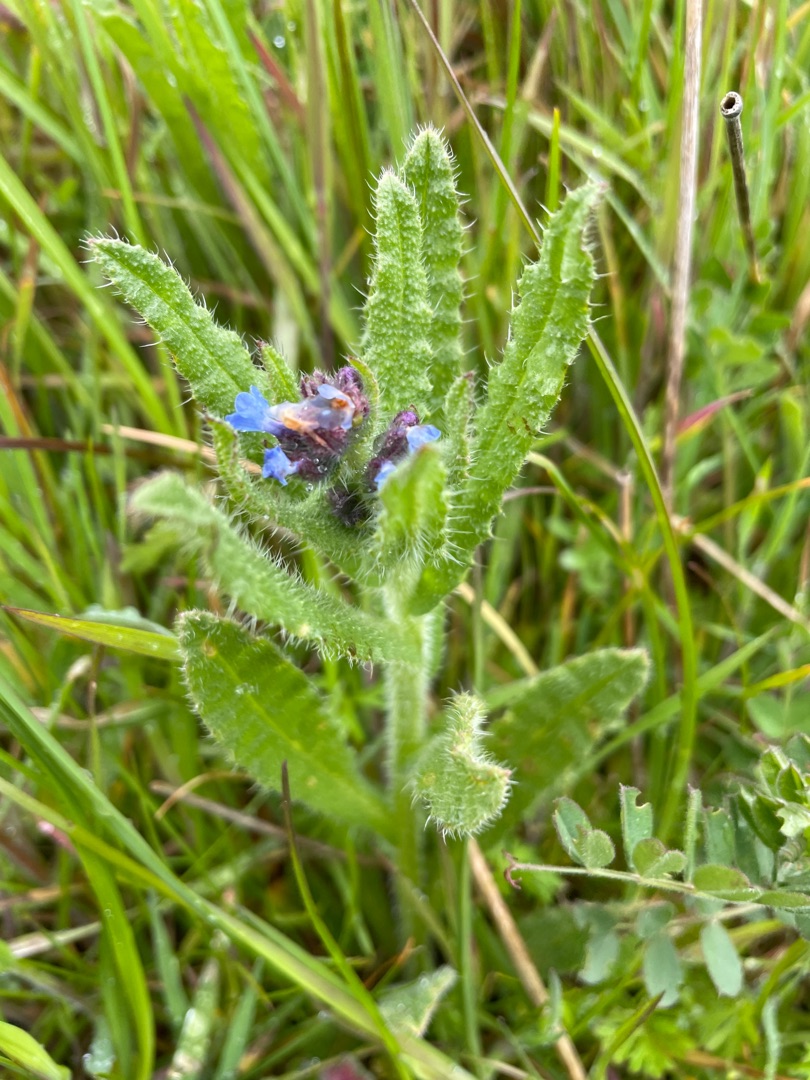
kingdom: Plantae
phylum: Tracheophyta
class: Magnoliopsida
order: Boraginales
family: Boraginaceae
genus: Lycopsis
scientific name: Lycopsis arvensis
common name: Krumhals
